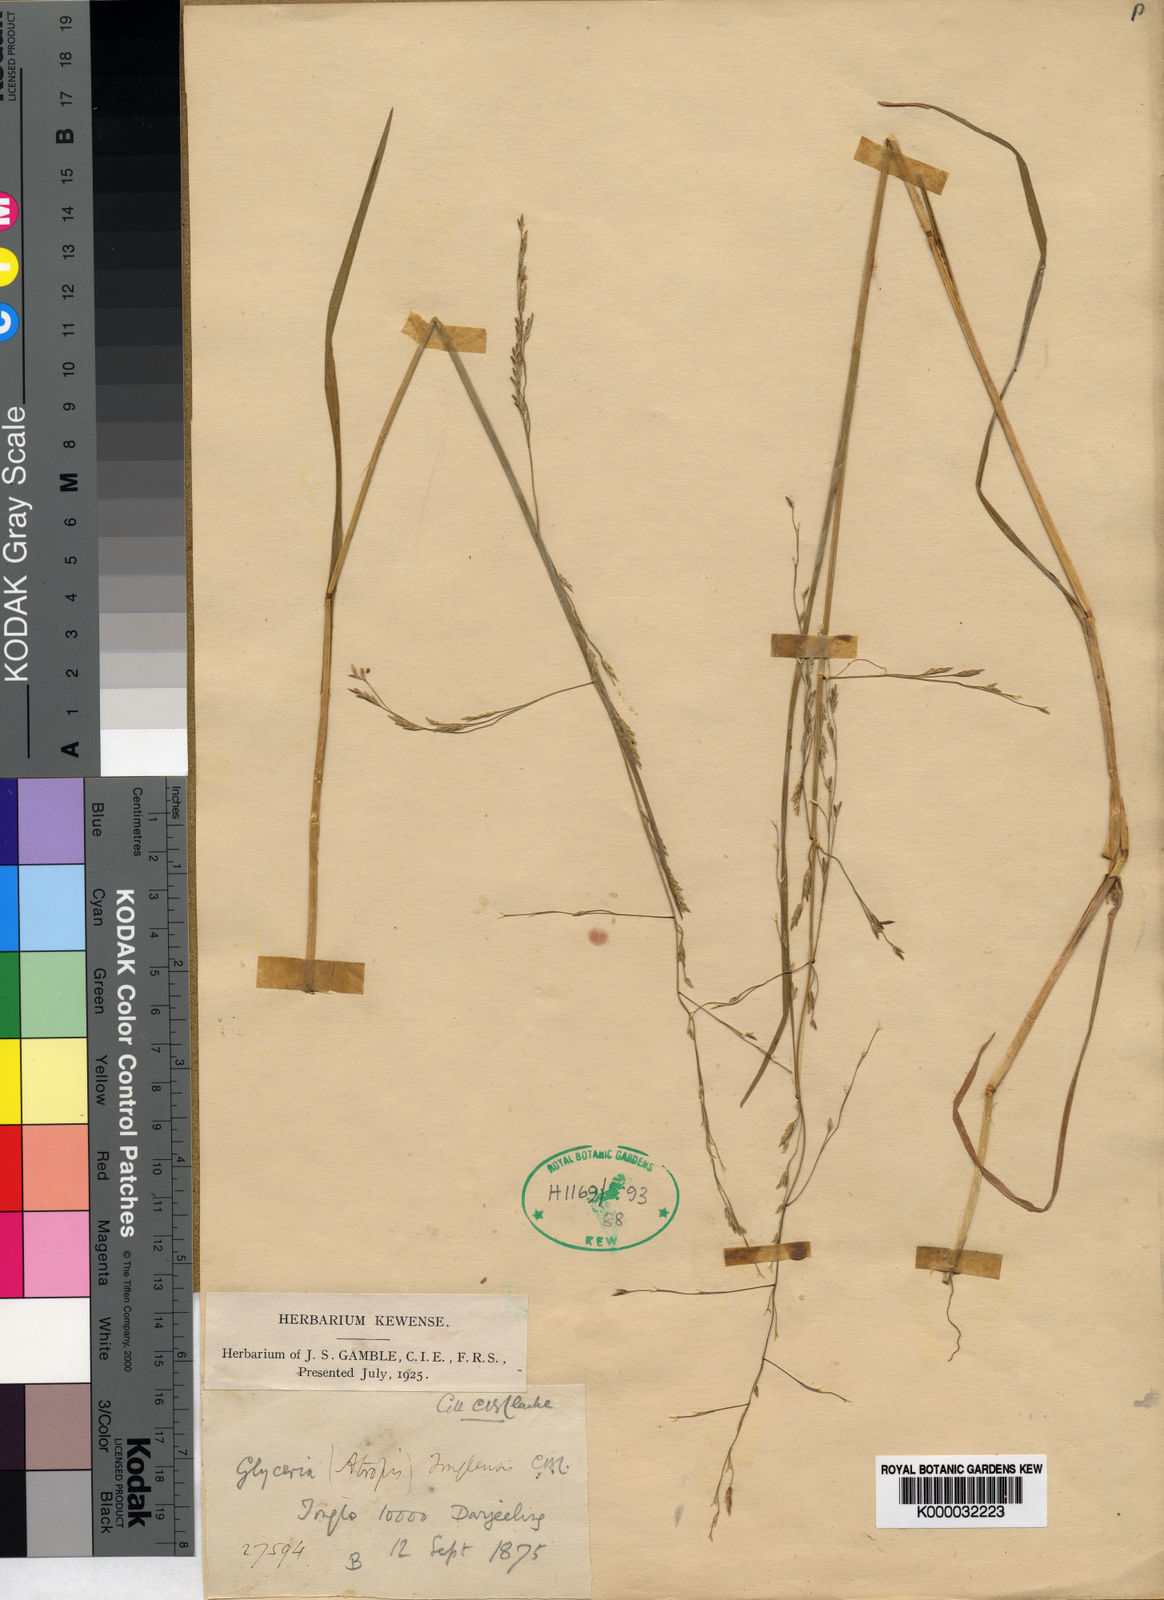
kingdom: Plantae
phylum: Tracheophyta
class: Liliopsida
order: Poales
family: Poaceae
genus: Glyceria
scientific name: Glyceria tonglensis
